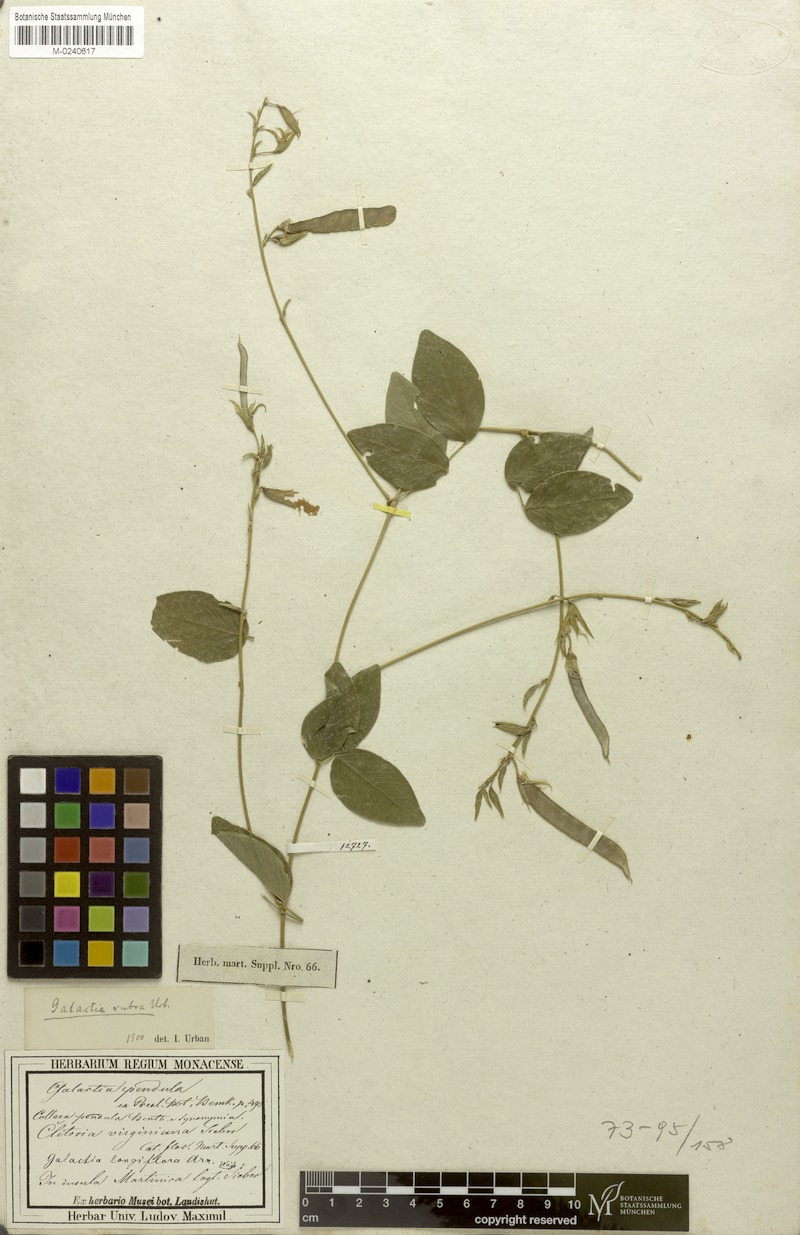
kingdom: Plantae
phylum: Tracheophyta
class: Magnoliopsida
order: Fabales
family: Fabaceae
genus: Galactia
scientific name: Galactia rubra
